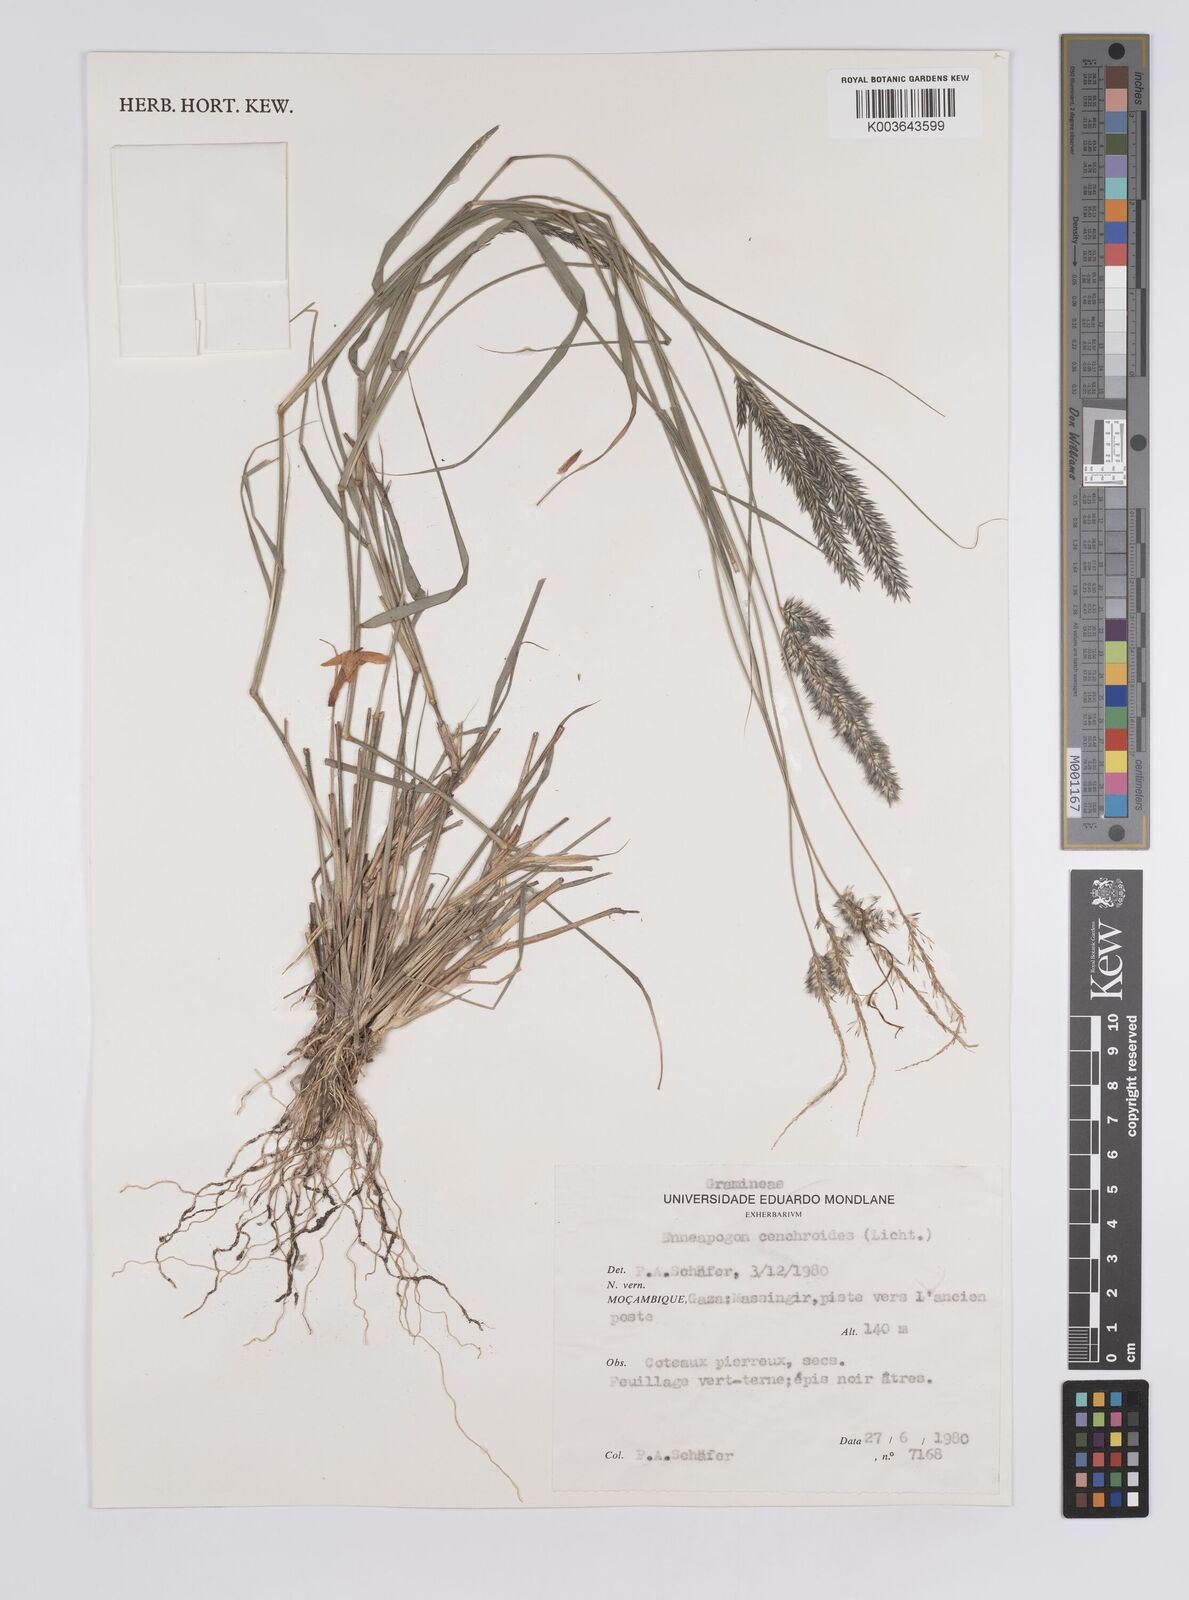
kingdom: Plantae
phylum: Tracheophyta
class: Liliopsida
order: Poales
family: Poaceae
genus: Enneapogon
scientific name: Enneapogon cenchroides
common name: Soft feather pappusgrass
